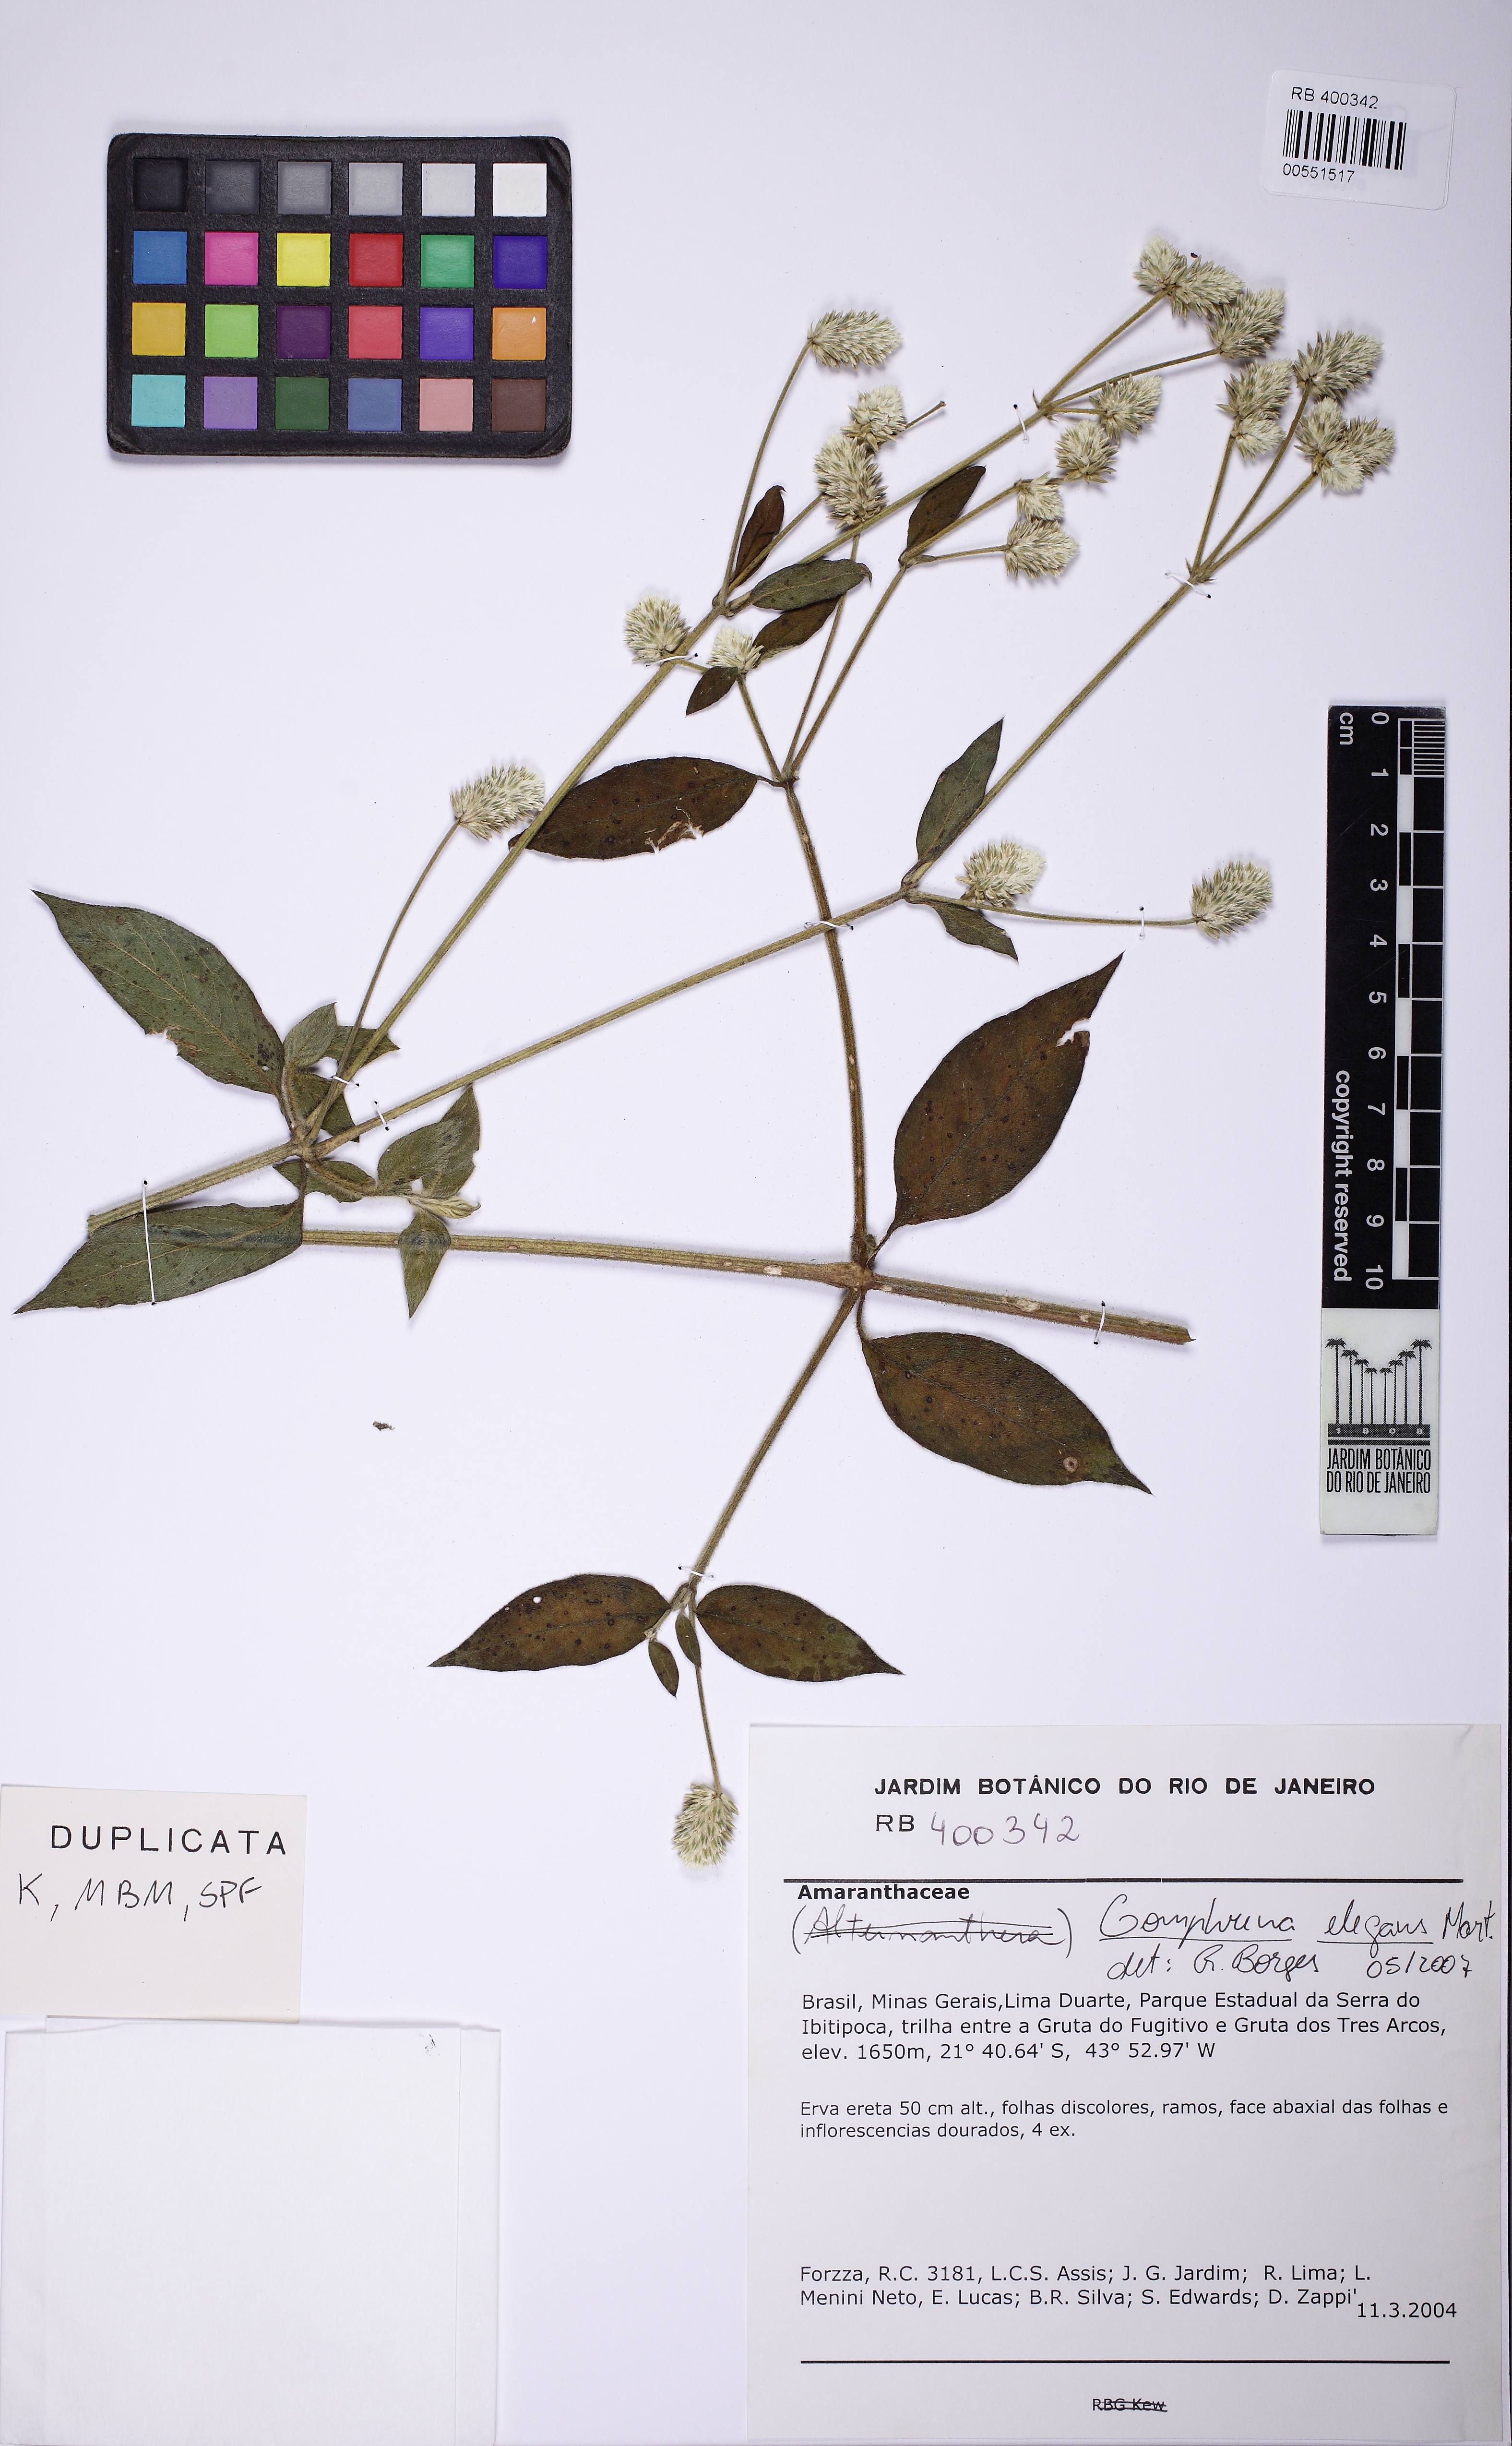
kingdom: Plantae
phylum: Tracheophyta
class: Magnoliopsida
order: Caryophyllales
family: Amaranthaceae
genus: Gomphrena
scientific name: Gomphrena elegans
